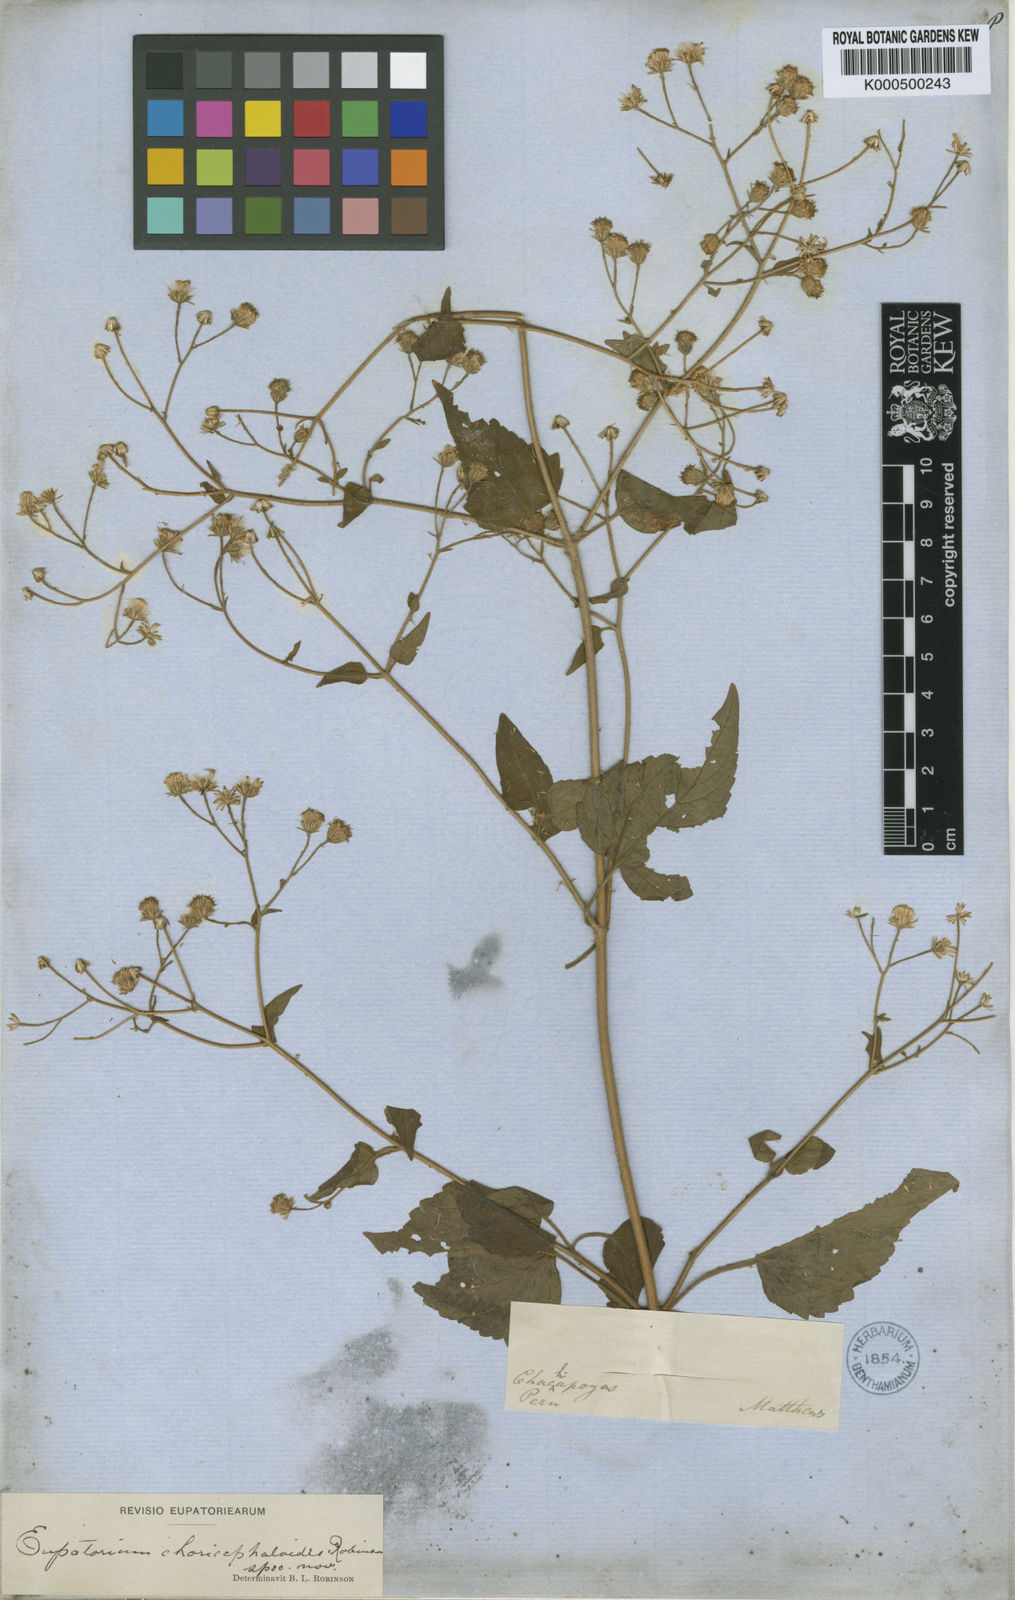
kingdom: Plantae
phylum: Tracheophyta
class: Magnoliopsida
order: Asterales
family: Asteraceae
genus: Ageratina
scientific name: Ageratina choricephaloides
